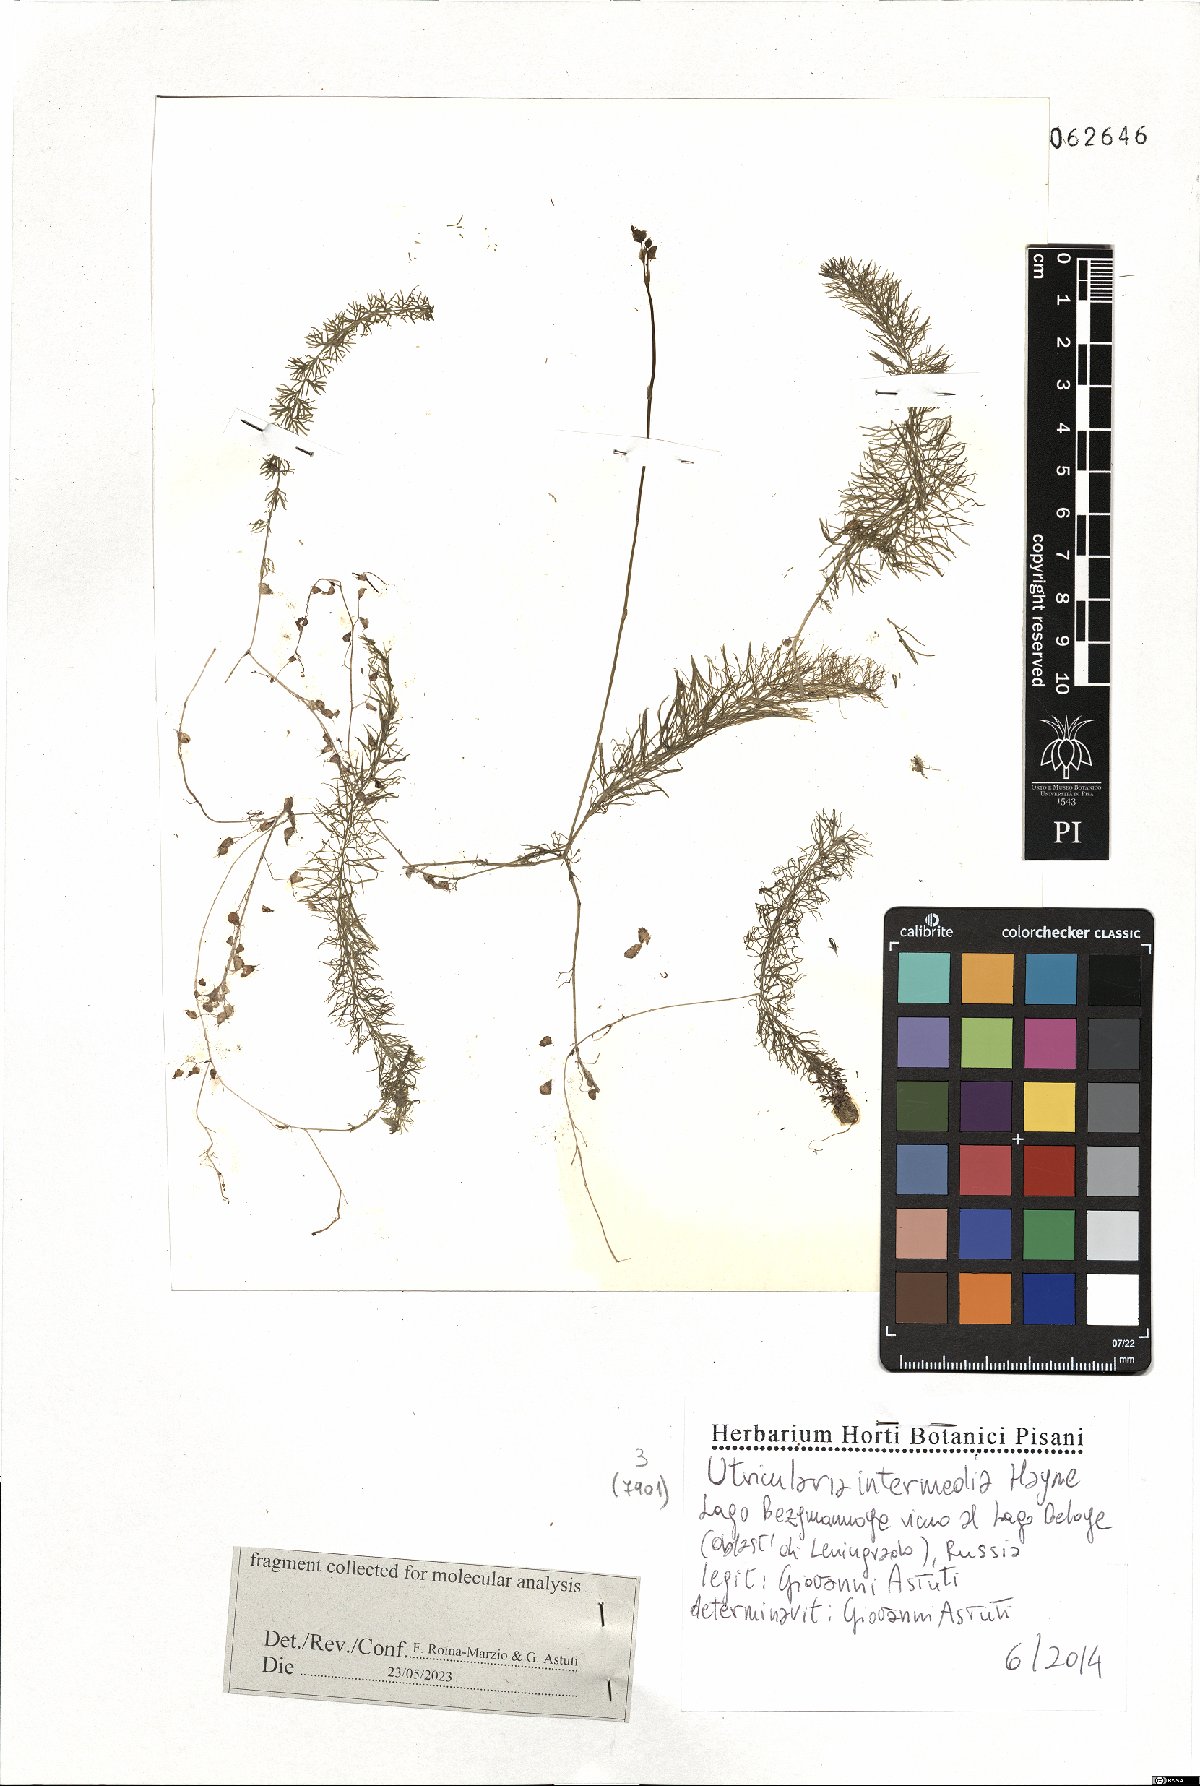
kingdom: Plantae
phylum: Tracheophyta
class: Magnoliopsida
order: Lamiales
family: Lentibulariaceae
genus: Utricularia
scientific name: Utricularia intermedia
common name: Intermediate bladderwort
